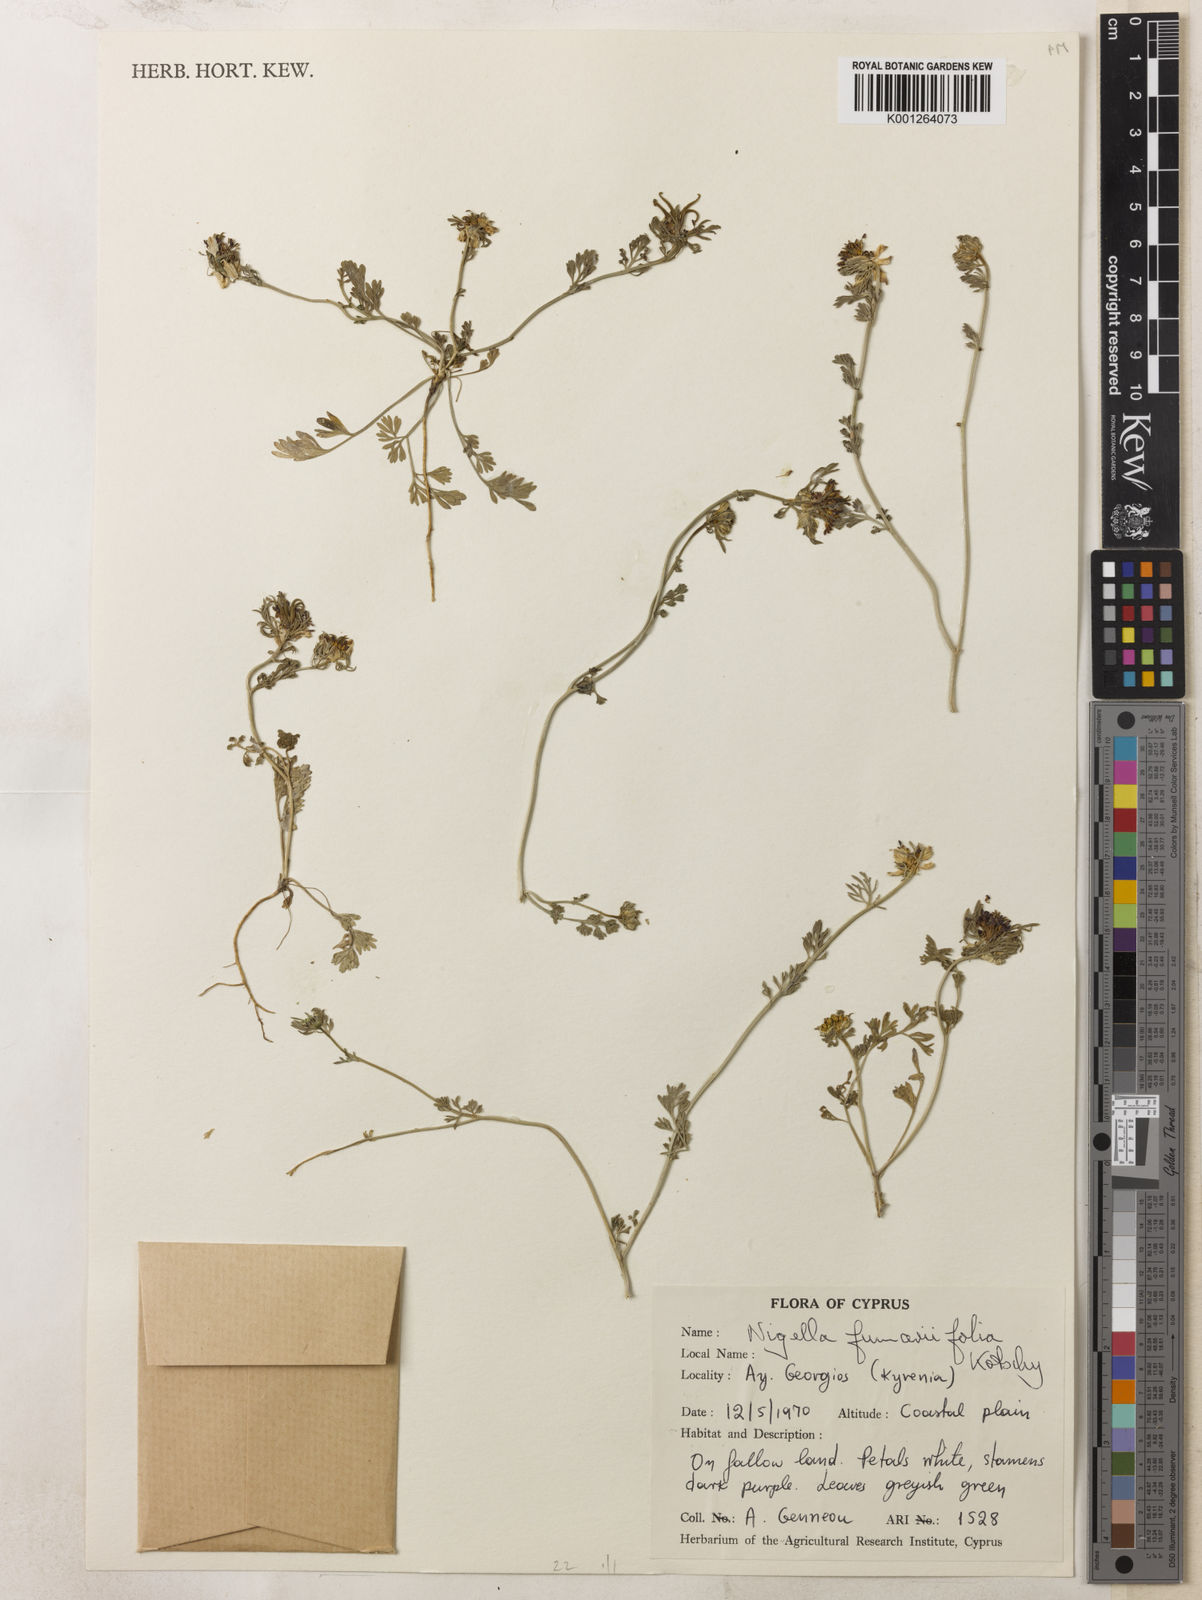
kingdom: Plantae
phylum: Tracheophyta
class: Magnoliopsida
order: Ranunculales
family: Ranunculaceae
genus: Nigella
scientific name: Nigella
